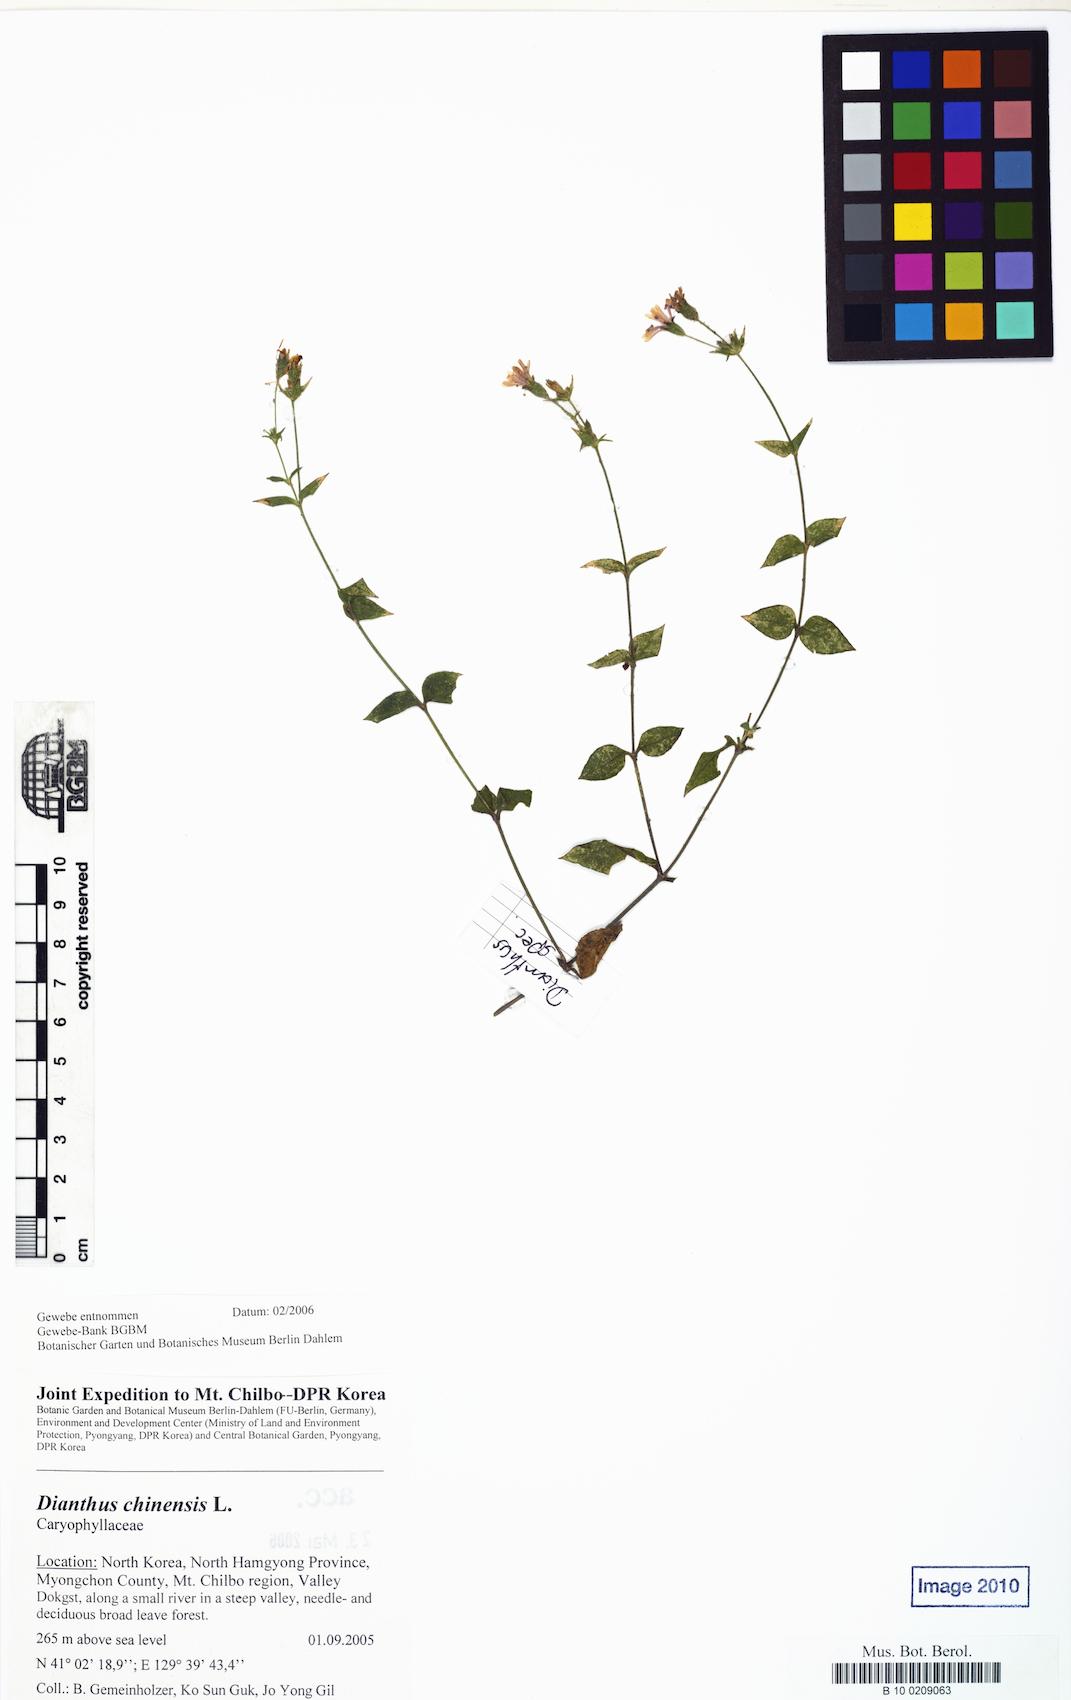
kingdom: Plantae
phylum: Tracheophyta
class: Magnoliopsida
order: Caryophyllales
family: Caryophyllaceae
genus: Silene
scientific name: Silene
